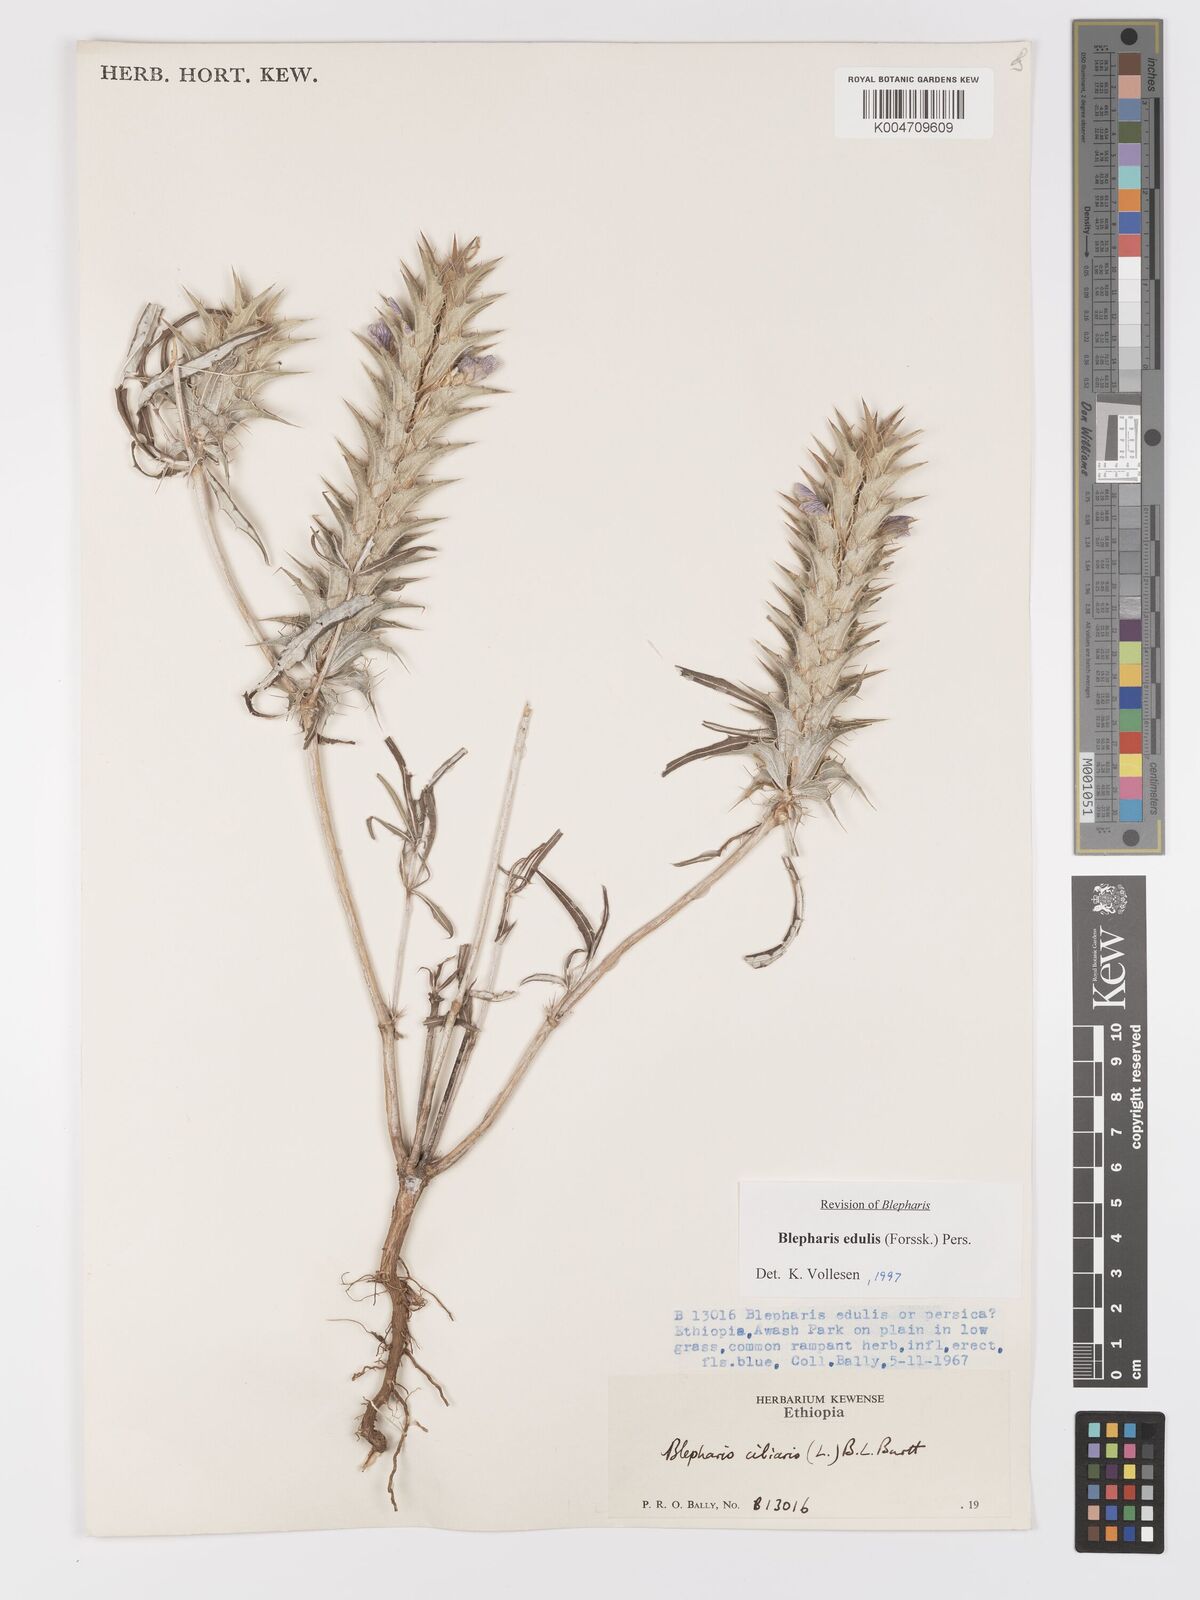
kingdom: Plantae
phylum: Tracheophyta
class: Magnoliopsida
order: Lamiales
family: Acanthaceae
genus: Blepharis
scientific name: Blepharis edulis
